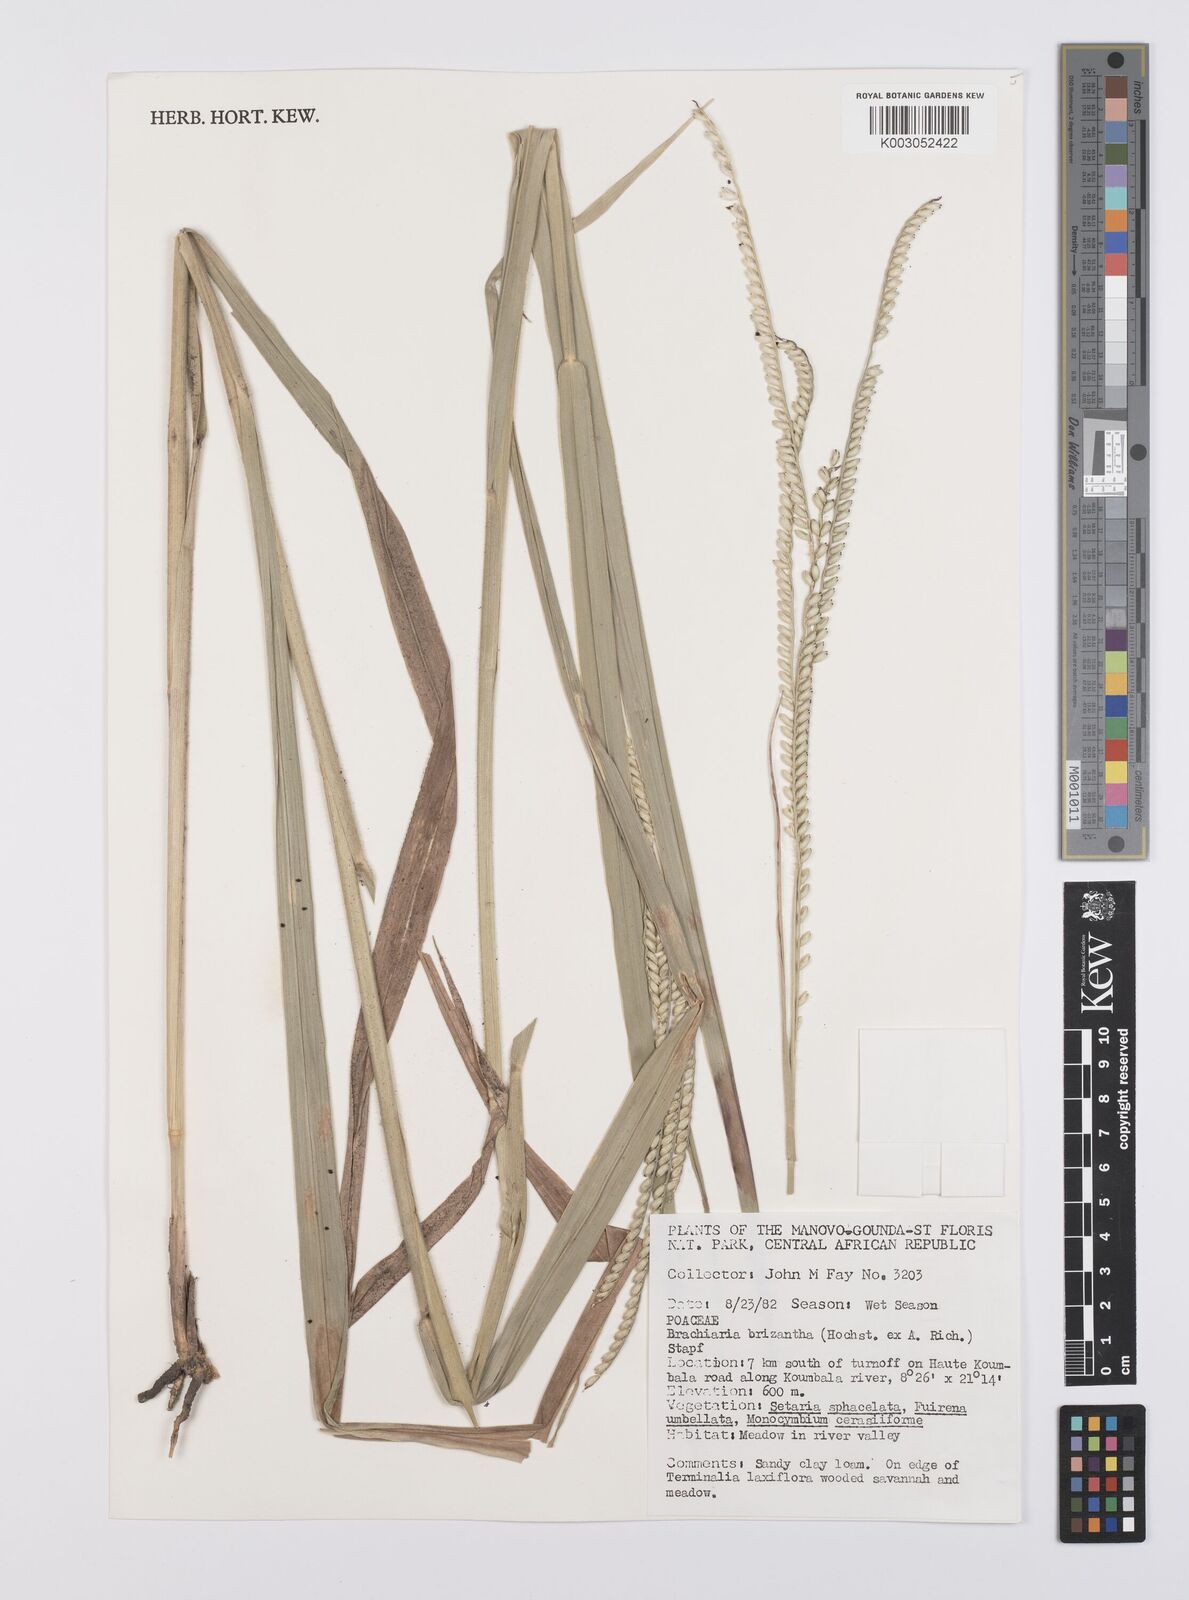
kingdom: Plantae
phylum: Tracheophyta
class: Liliopsida
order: Poales
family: Poaceae
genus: Urochloa
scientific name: Urochloa brizantha
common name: Palisade signalgrass
